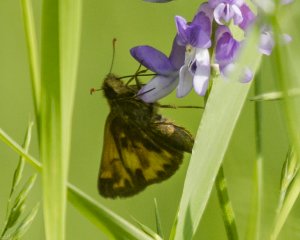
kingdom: Animalia
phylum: Arthropoda
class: Insecta
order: Lepidoptera
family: Hesperiidae
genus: Lon
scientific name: Lon hobomok
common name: Hobomok Skipper
